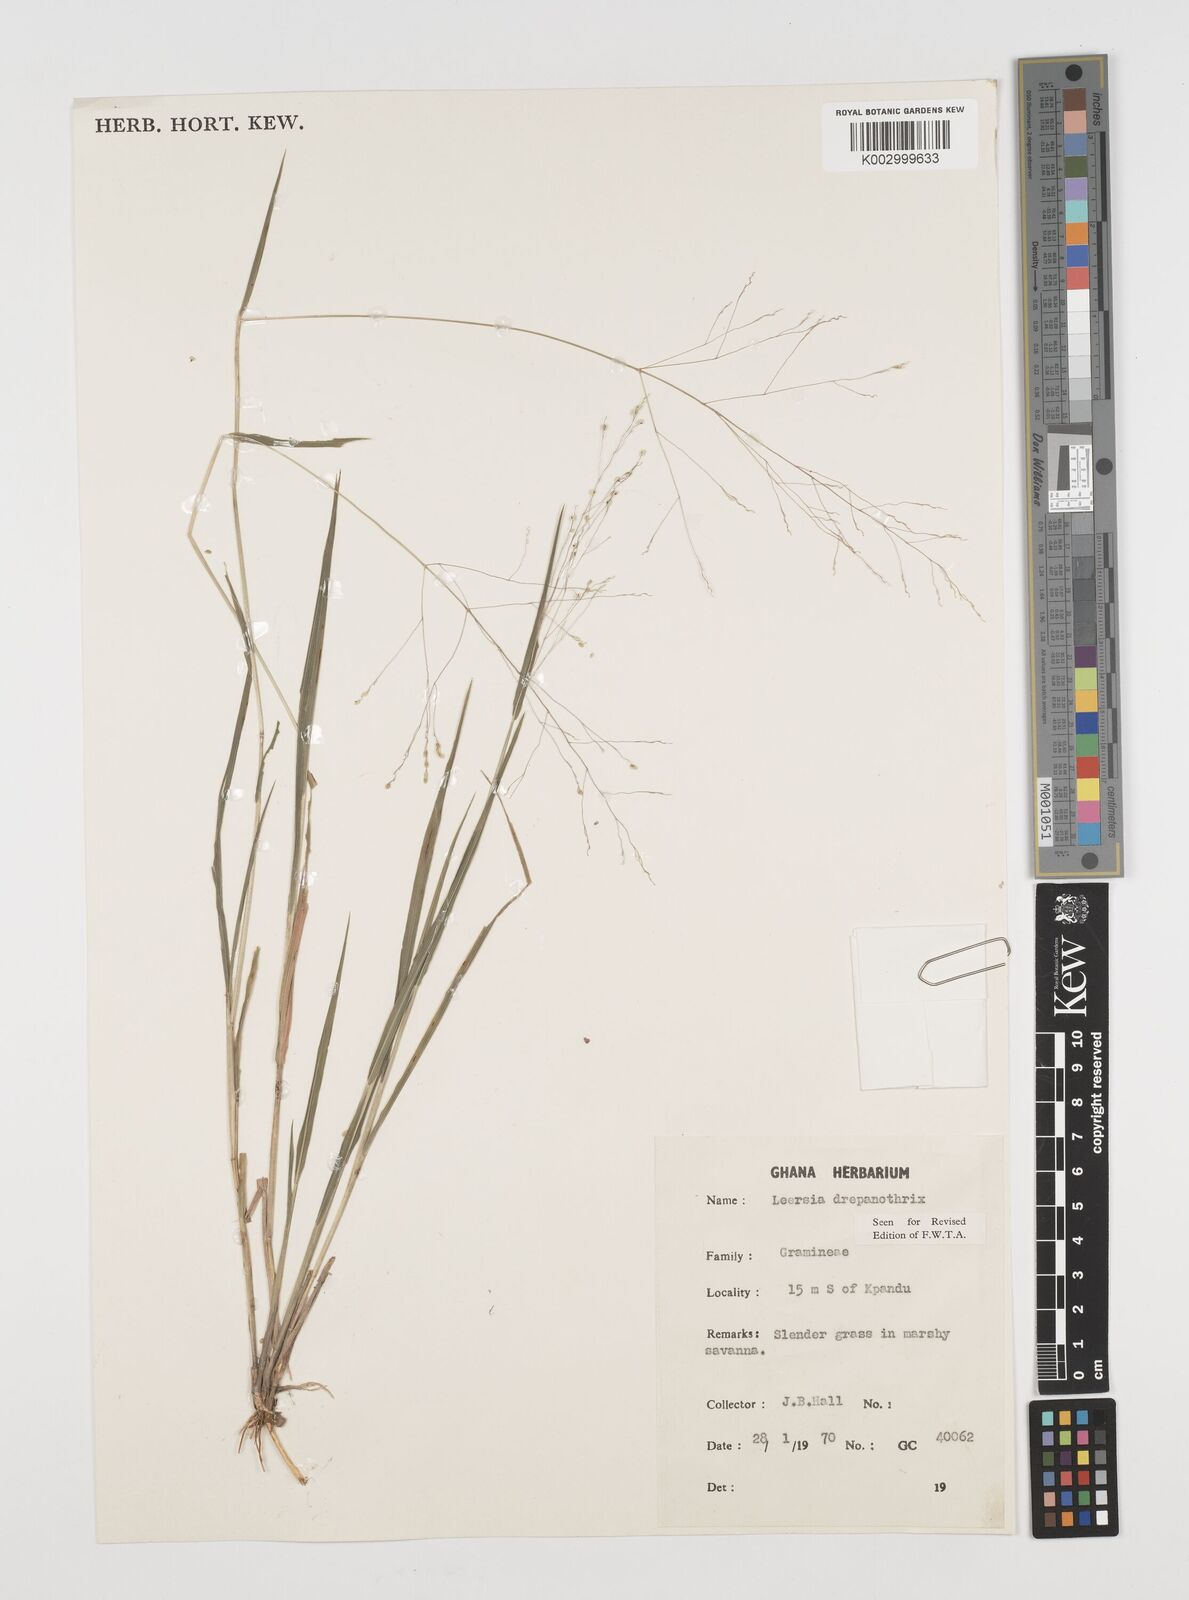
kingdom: Plantae
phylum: Tracheophyta
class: Liliopsida
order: Poales
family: Poaceae
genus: Leersia
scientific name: Leersia drepanothrix
